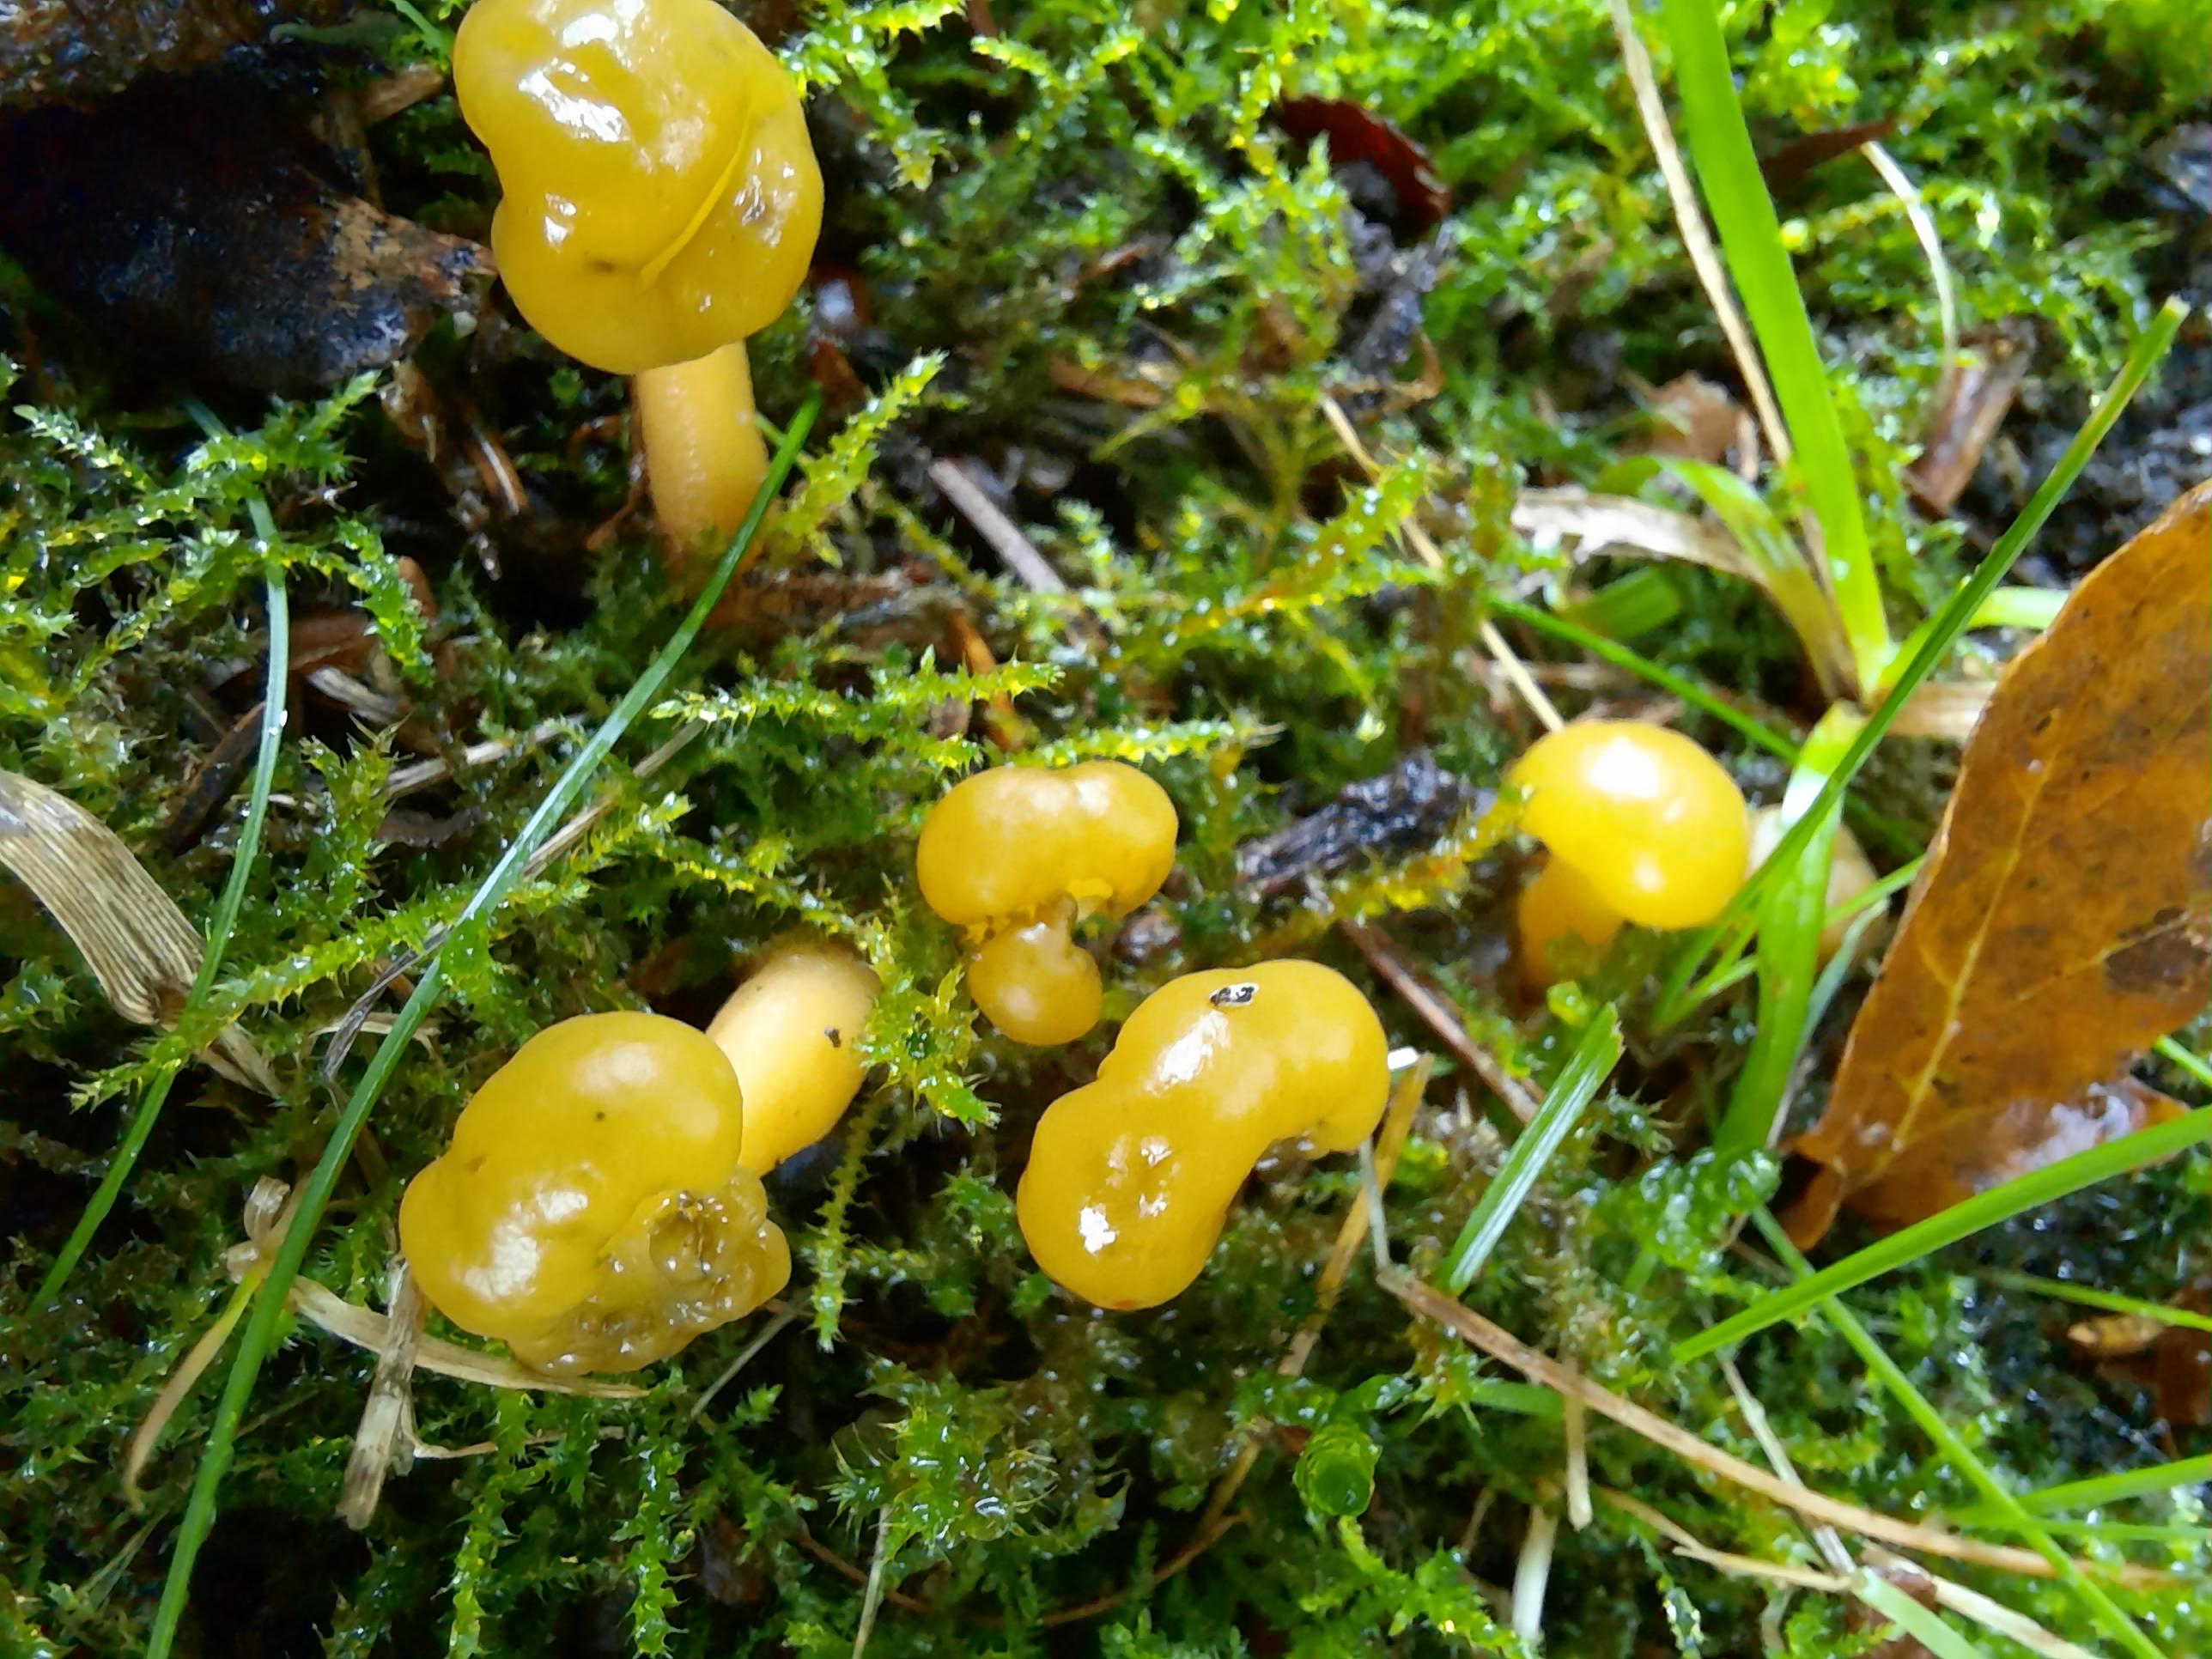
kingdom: Fungi
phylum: Ascomycota
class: Leotiomycetes
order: Leotiales
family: Leotiaceae
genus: Leotia
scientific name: Leotia lubrica
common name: ravsvamp
